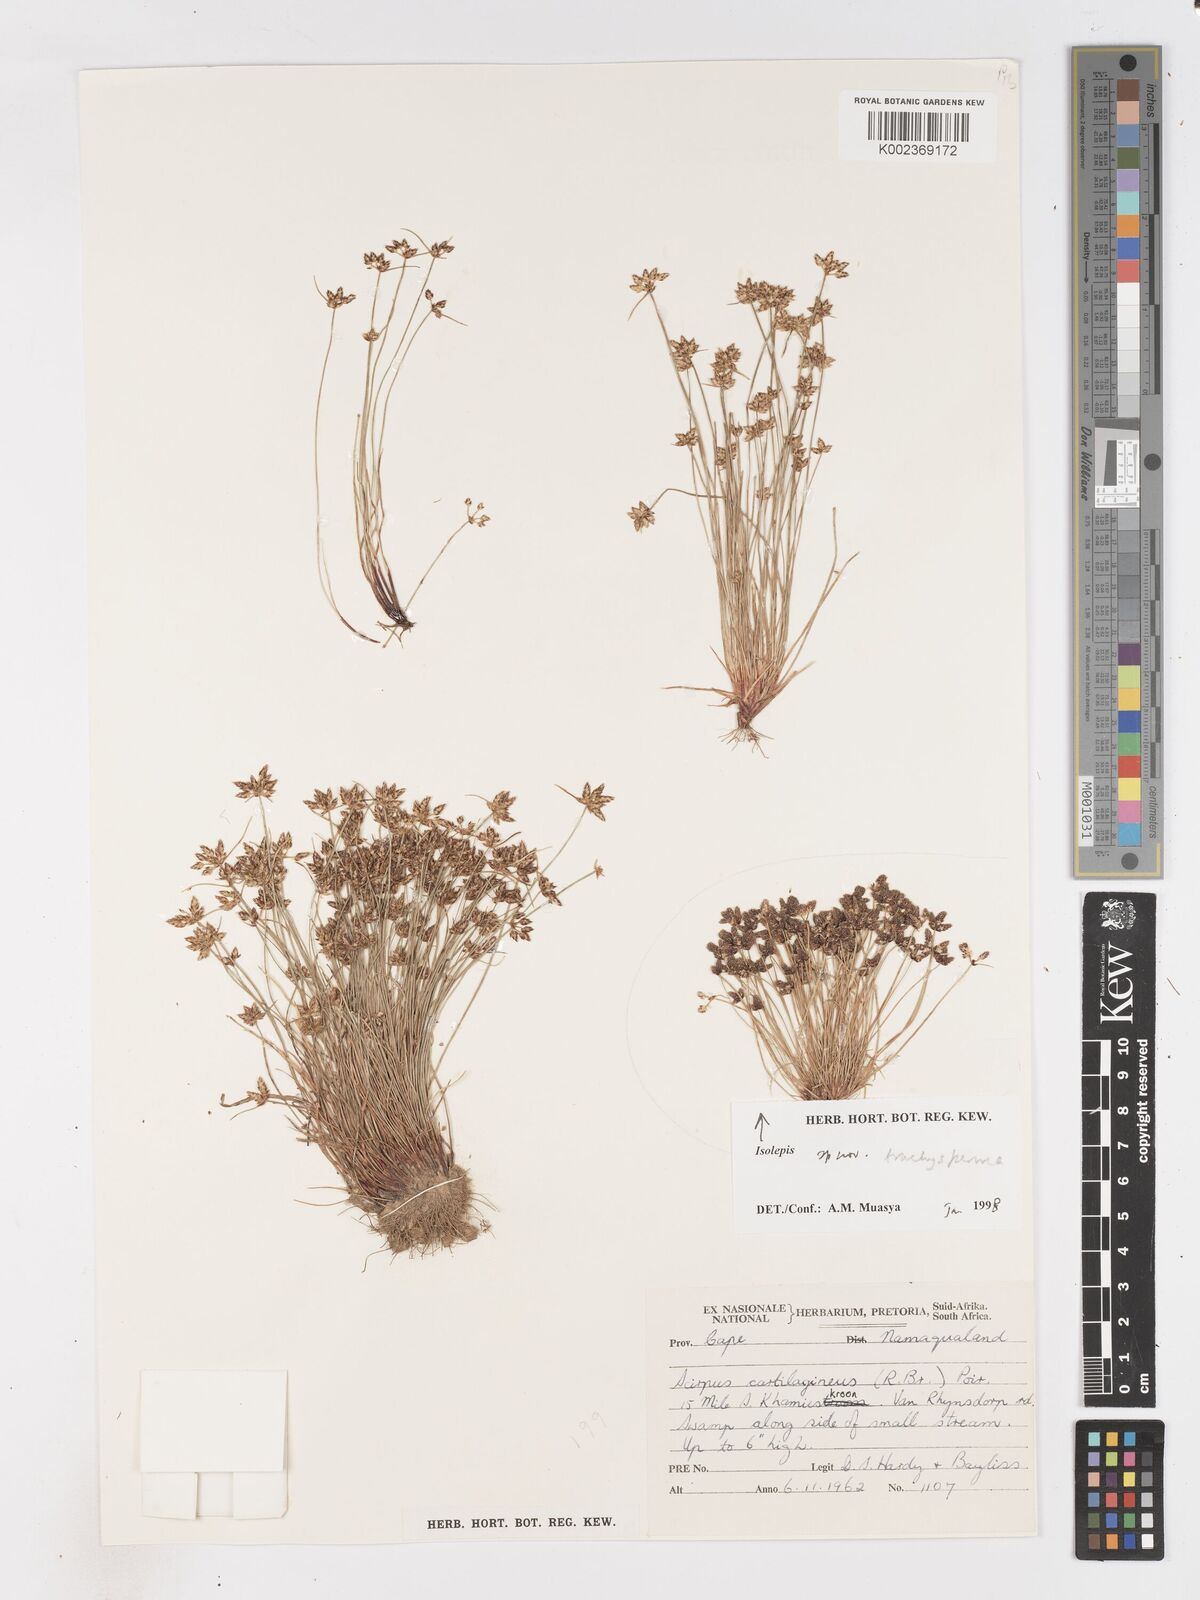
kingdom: Plantae
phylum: Tracheophyta
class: Liliopsida
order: Poales
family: Cyperaceae
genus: Isolepis
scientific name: Isolepis trachysperma
